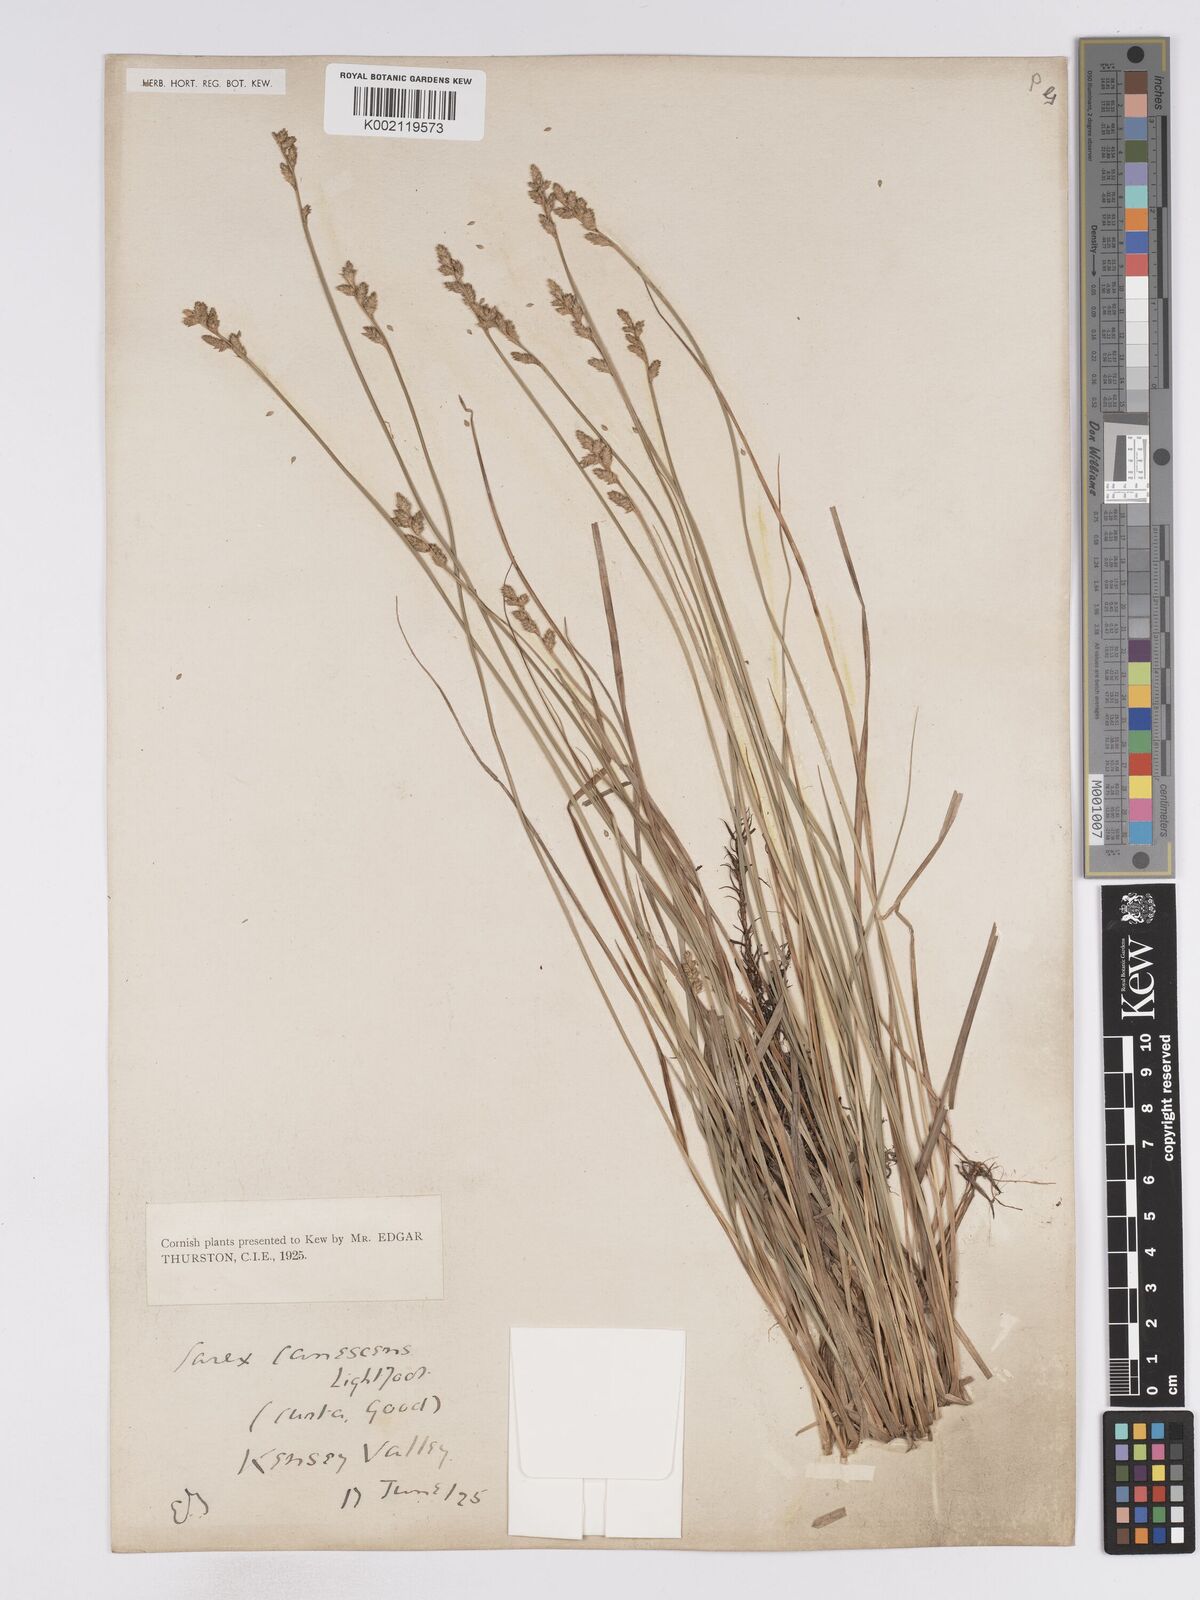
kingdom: Plantae
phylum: Tracheophyta
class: Liliopsida
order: Poales
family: Cyperaceae
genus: Carex
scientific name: Carex curta
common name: White sedge
